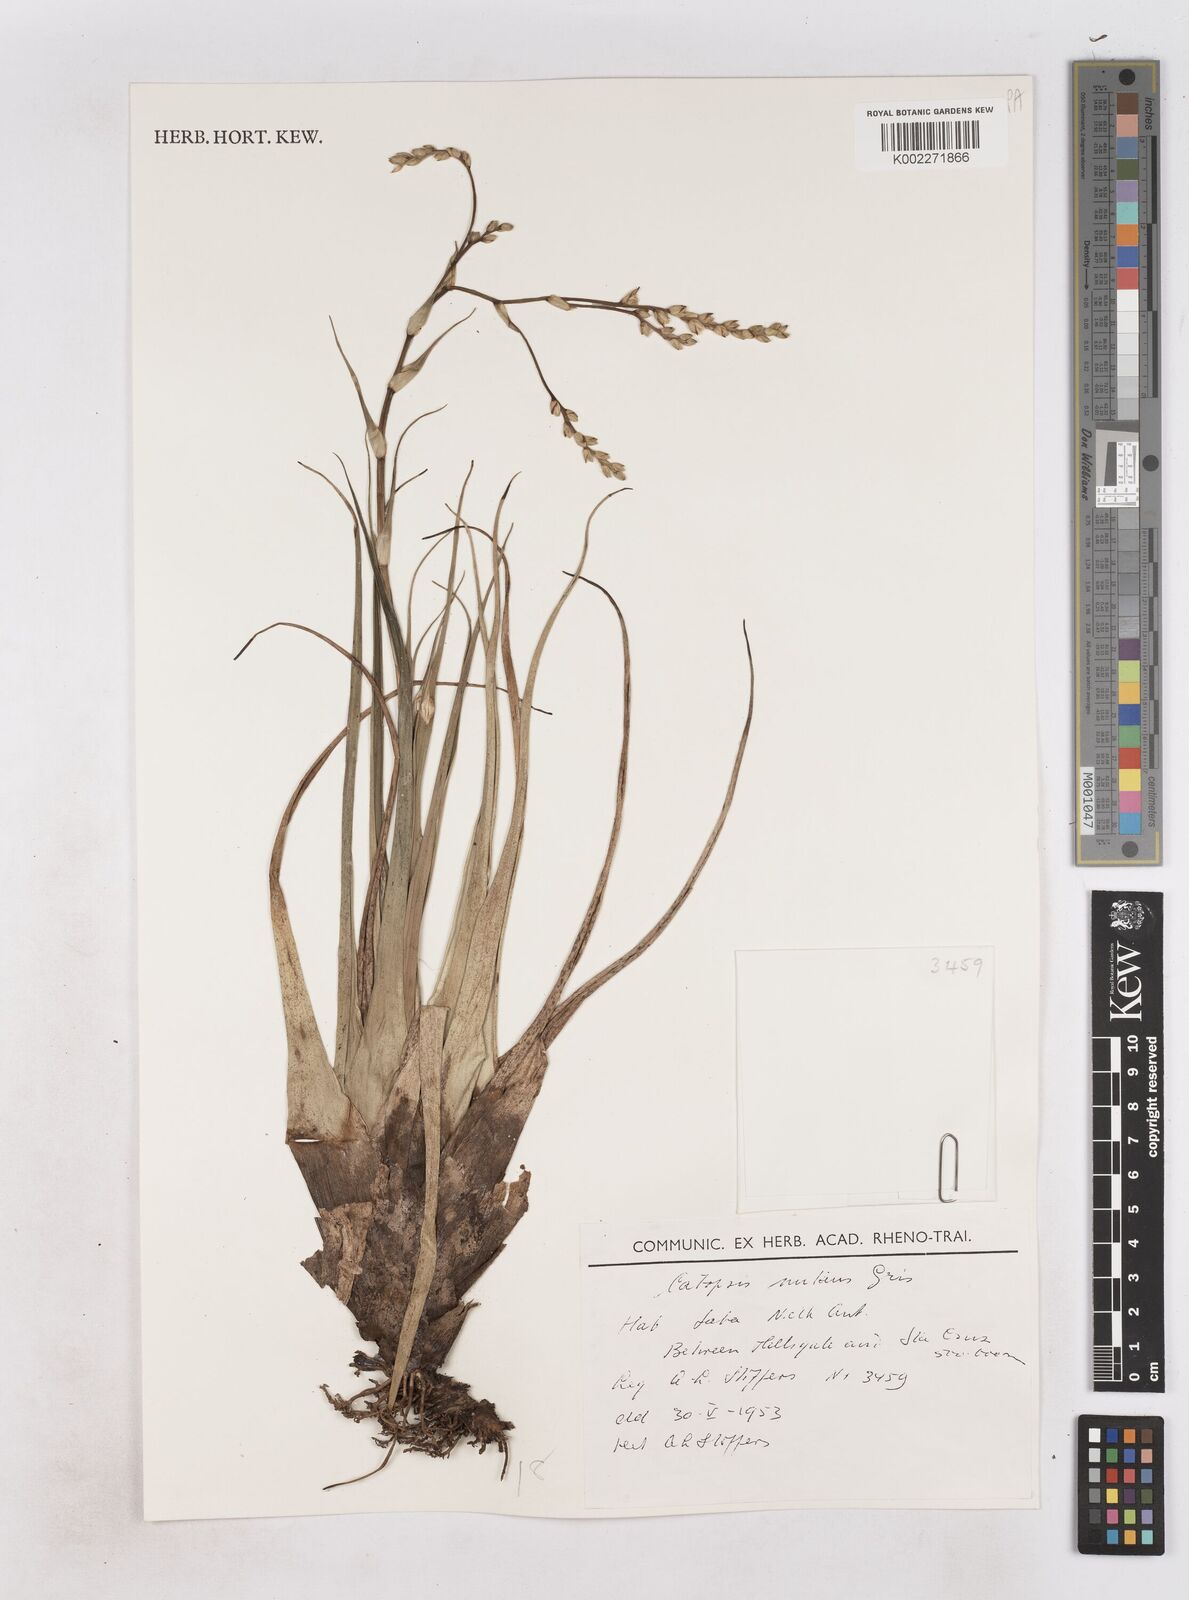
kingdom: Plantae
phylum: Tracheophyta
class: Liliopsida
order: Poales
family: Bromeliaceae
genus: Catopsis
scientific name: Catopsis nutans
